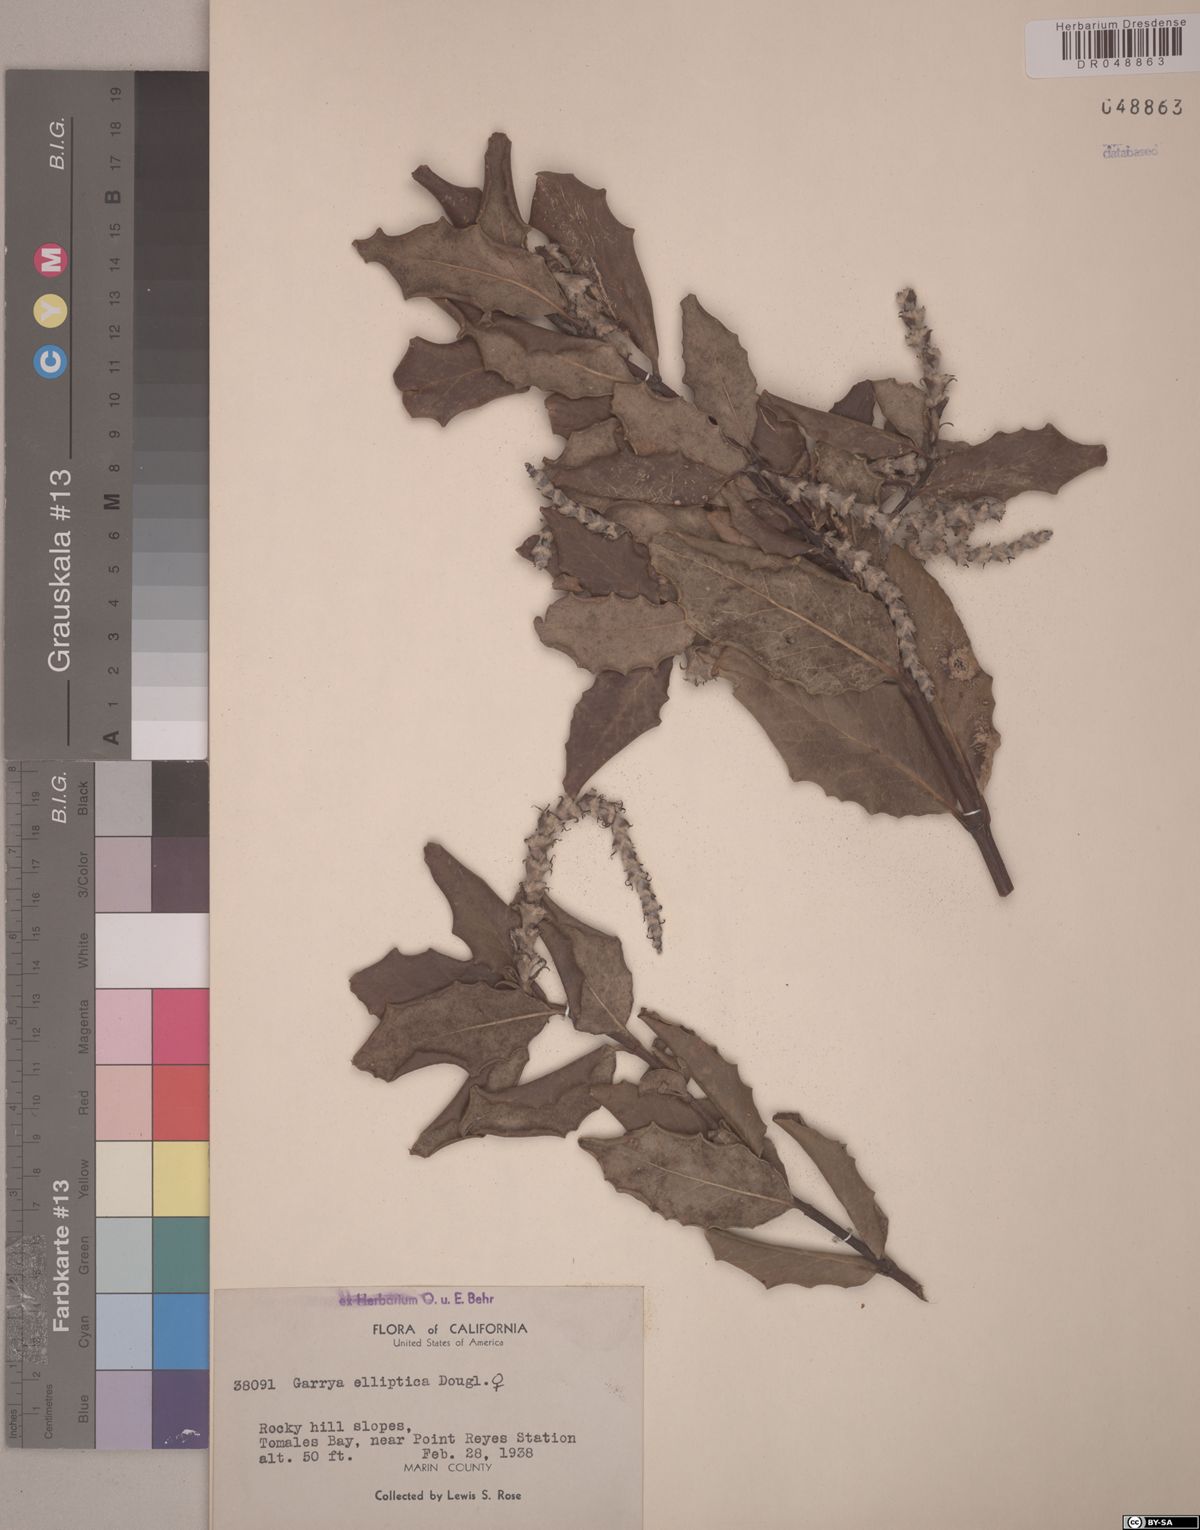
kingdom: Plantae
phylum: Tracheophyta
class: Magnoliopsida
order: Garryales
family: Garryaceae
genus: Garrya
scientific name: Garrya elliptica
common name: Silk-tassel
